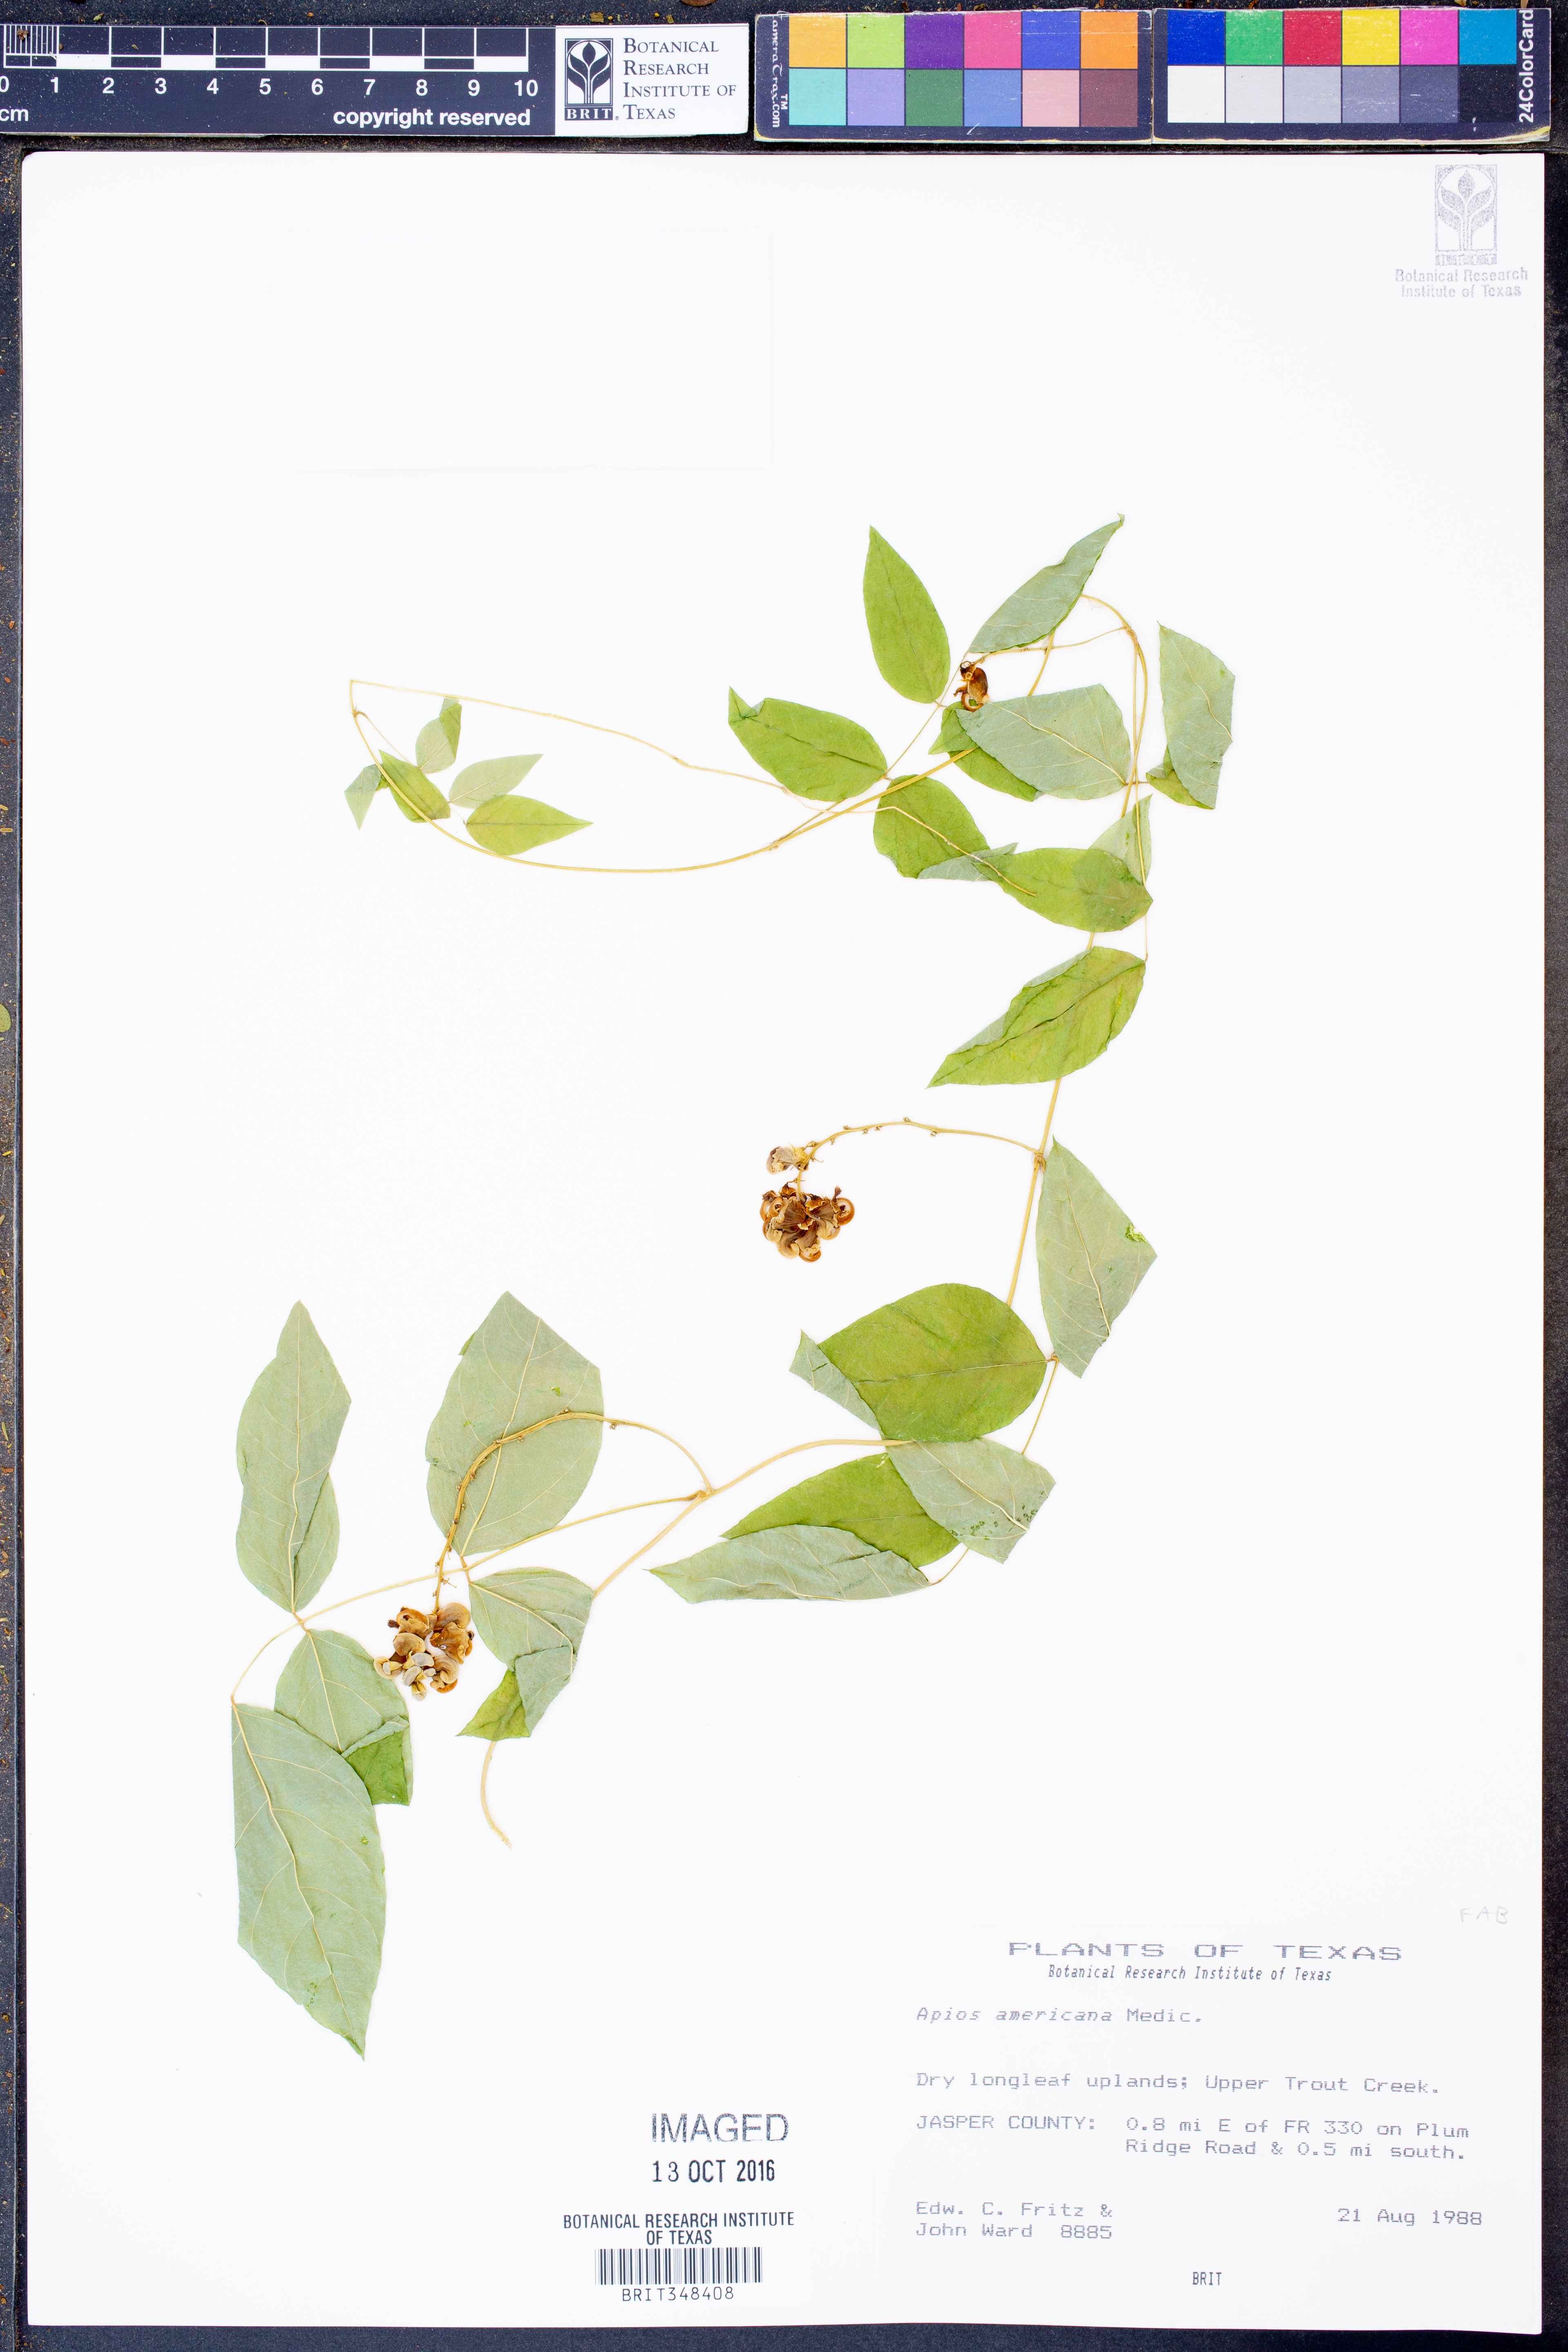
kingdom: Plantae
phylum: Tracheophyta
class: Magnoliopsida
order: Fabales
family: Fabaceae
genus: Apios
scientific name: Apios americana
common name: American potato-bean
